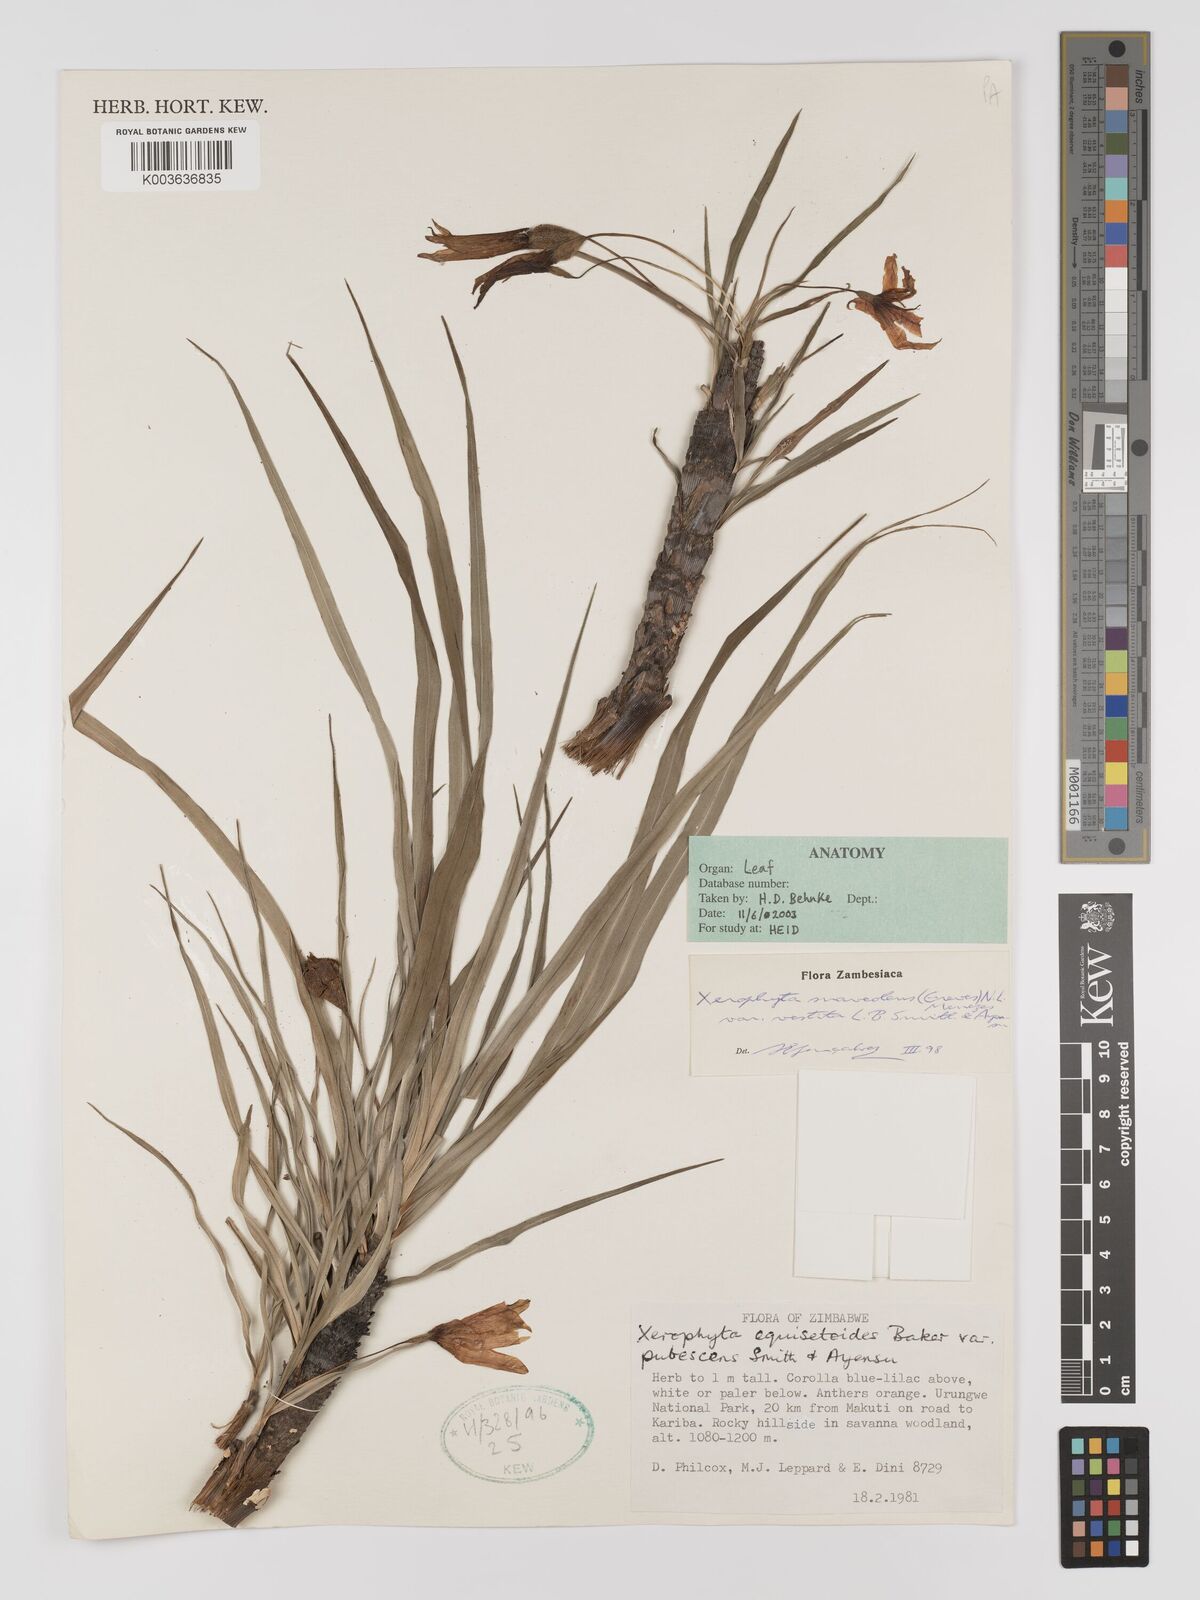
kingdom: Plantae
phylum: Tracheophyta
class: Liliopsida
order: Pandanales
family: Velloziaceae
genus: Xerophyta
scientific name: Xerophyta suaveolens
